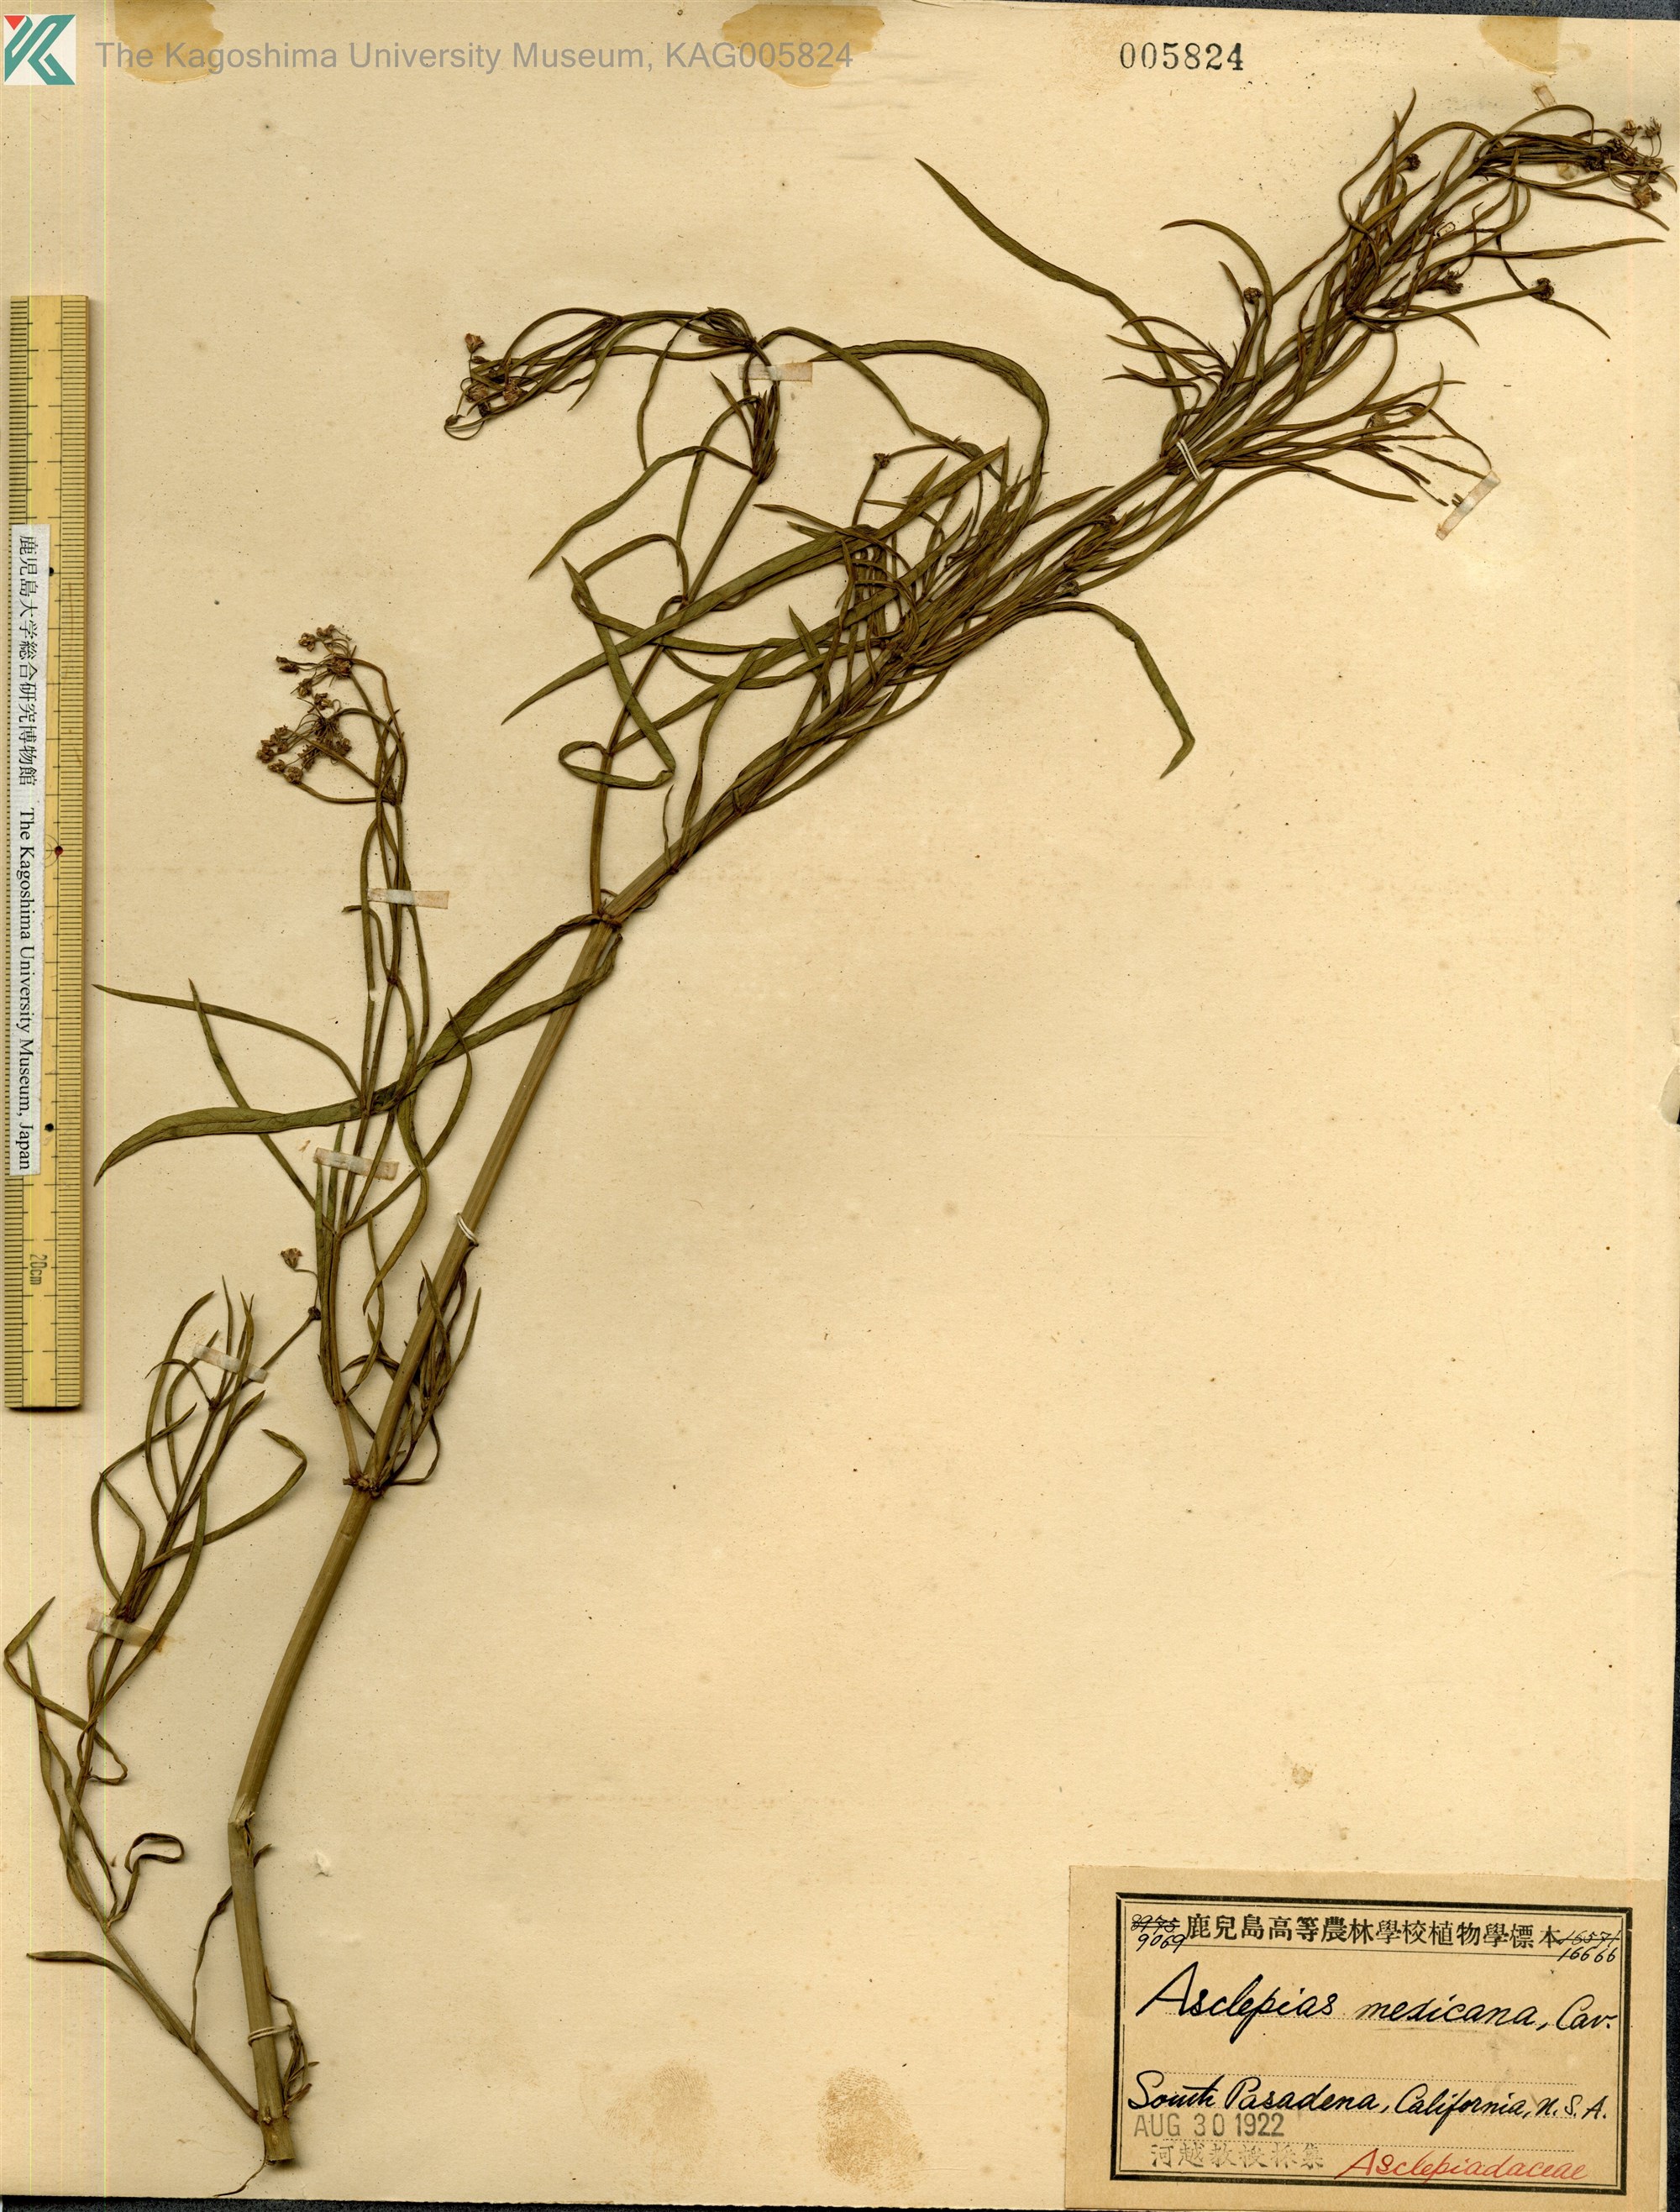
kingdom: Plantae
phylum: Tracheophyta
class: Magnoliopsida
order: Gentianales
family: Apocynaceae
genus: Asclepias
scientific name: Asclepias mexicana
